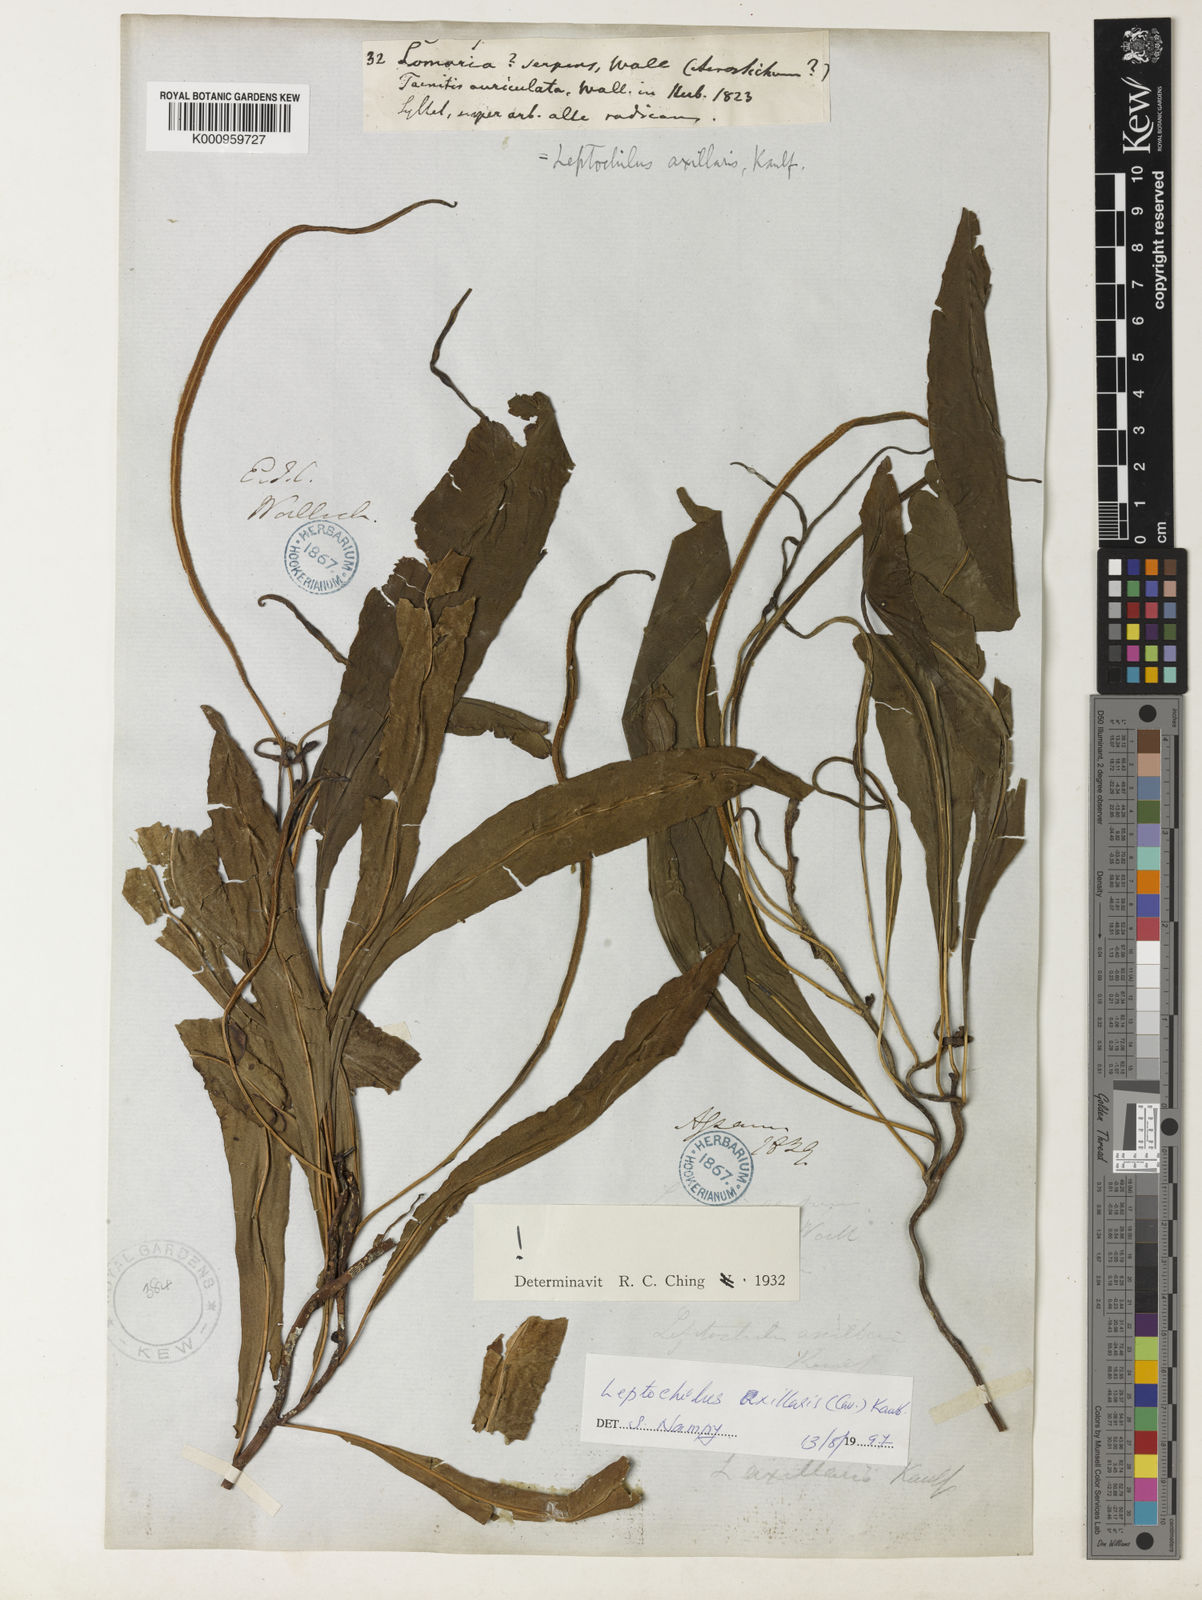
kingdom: Plantae
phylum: Tracheophyta
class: Polypodiopsida
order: Polypodiales
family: Polypodiaceae
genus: Leptochilus
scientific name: Leptochilus axillaris
